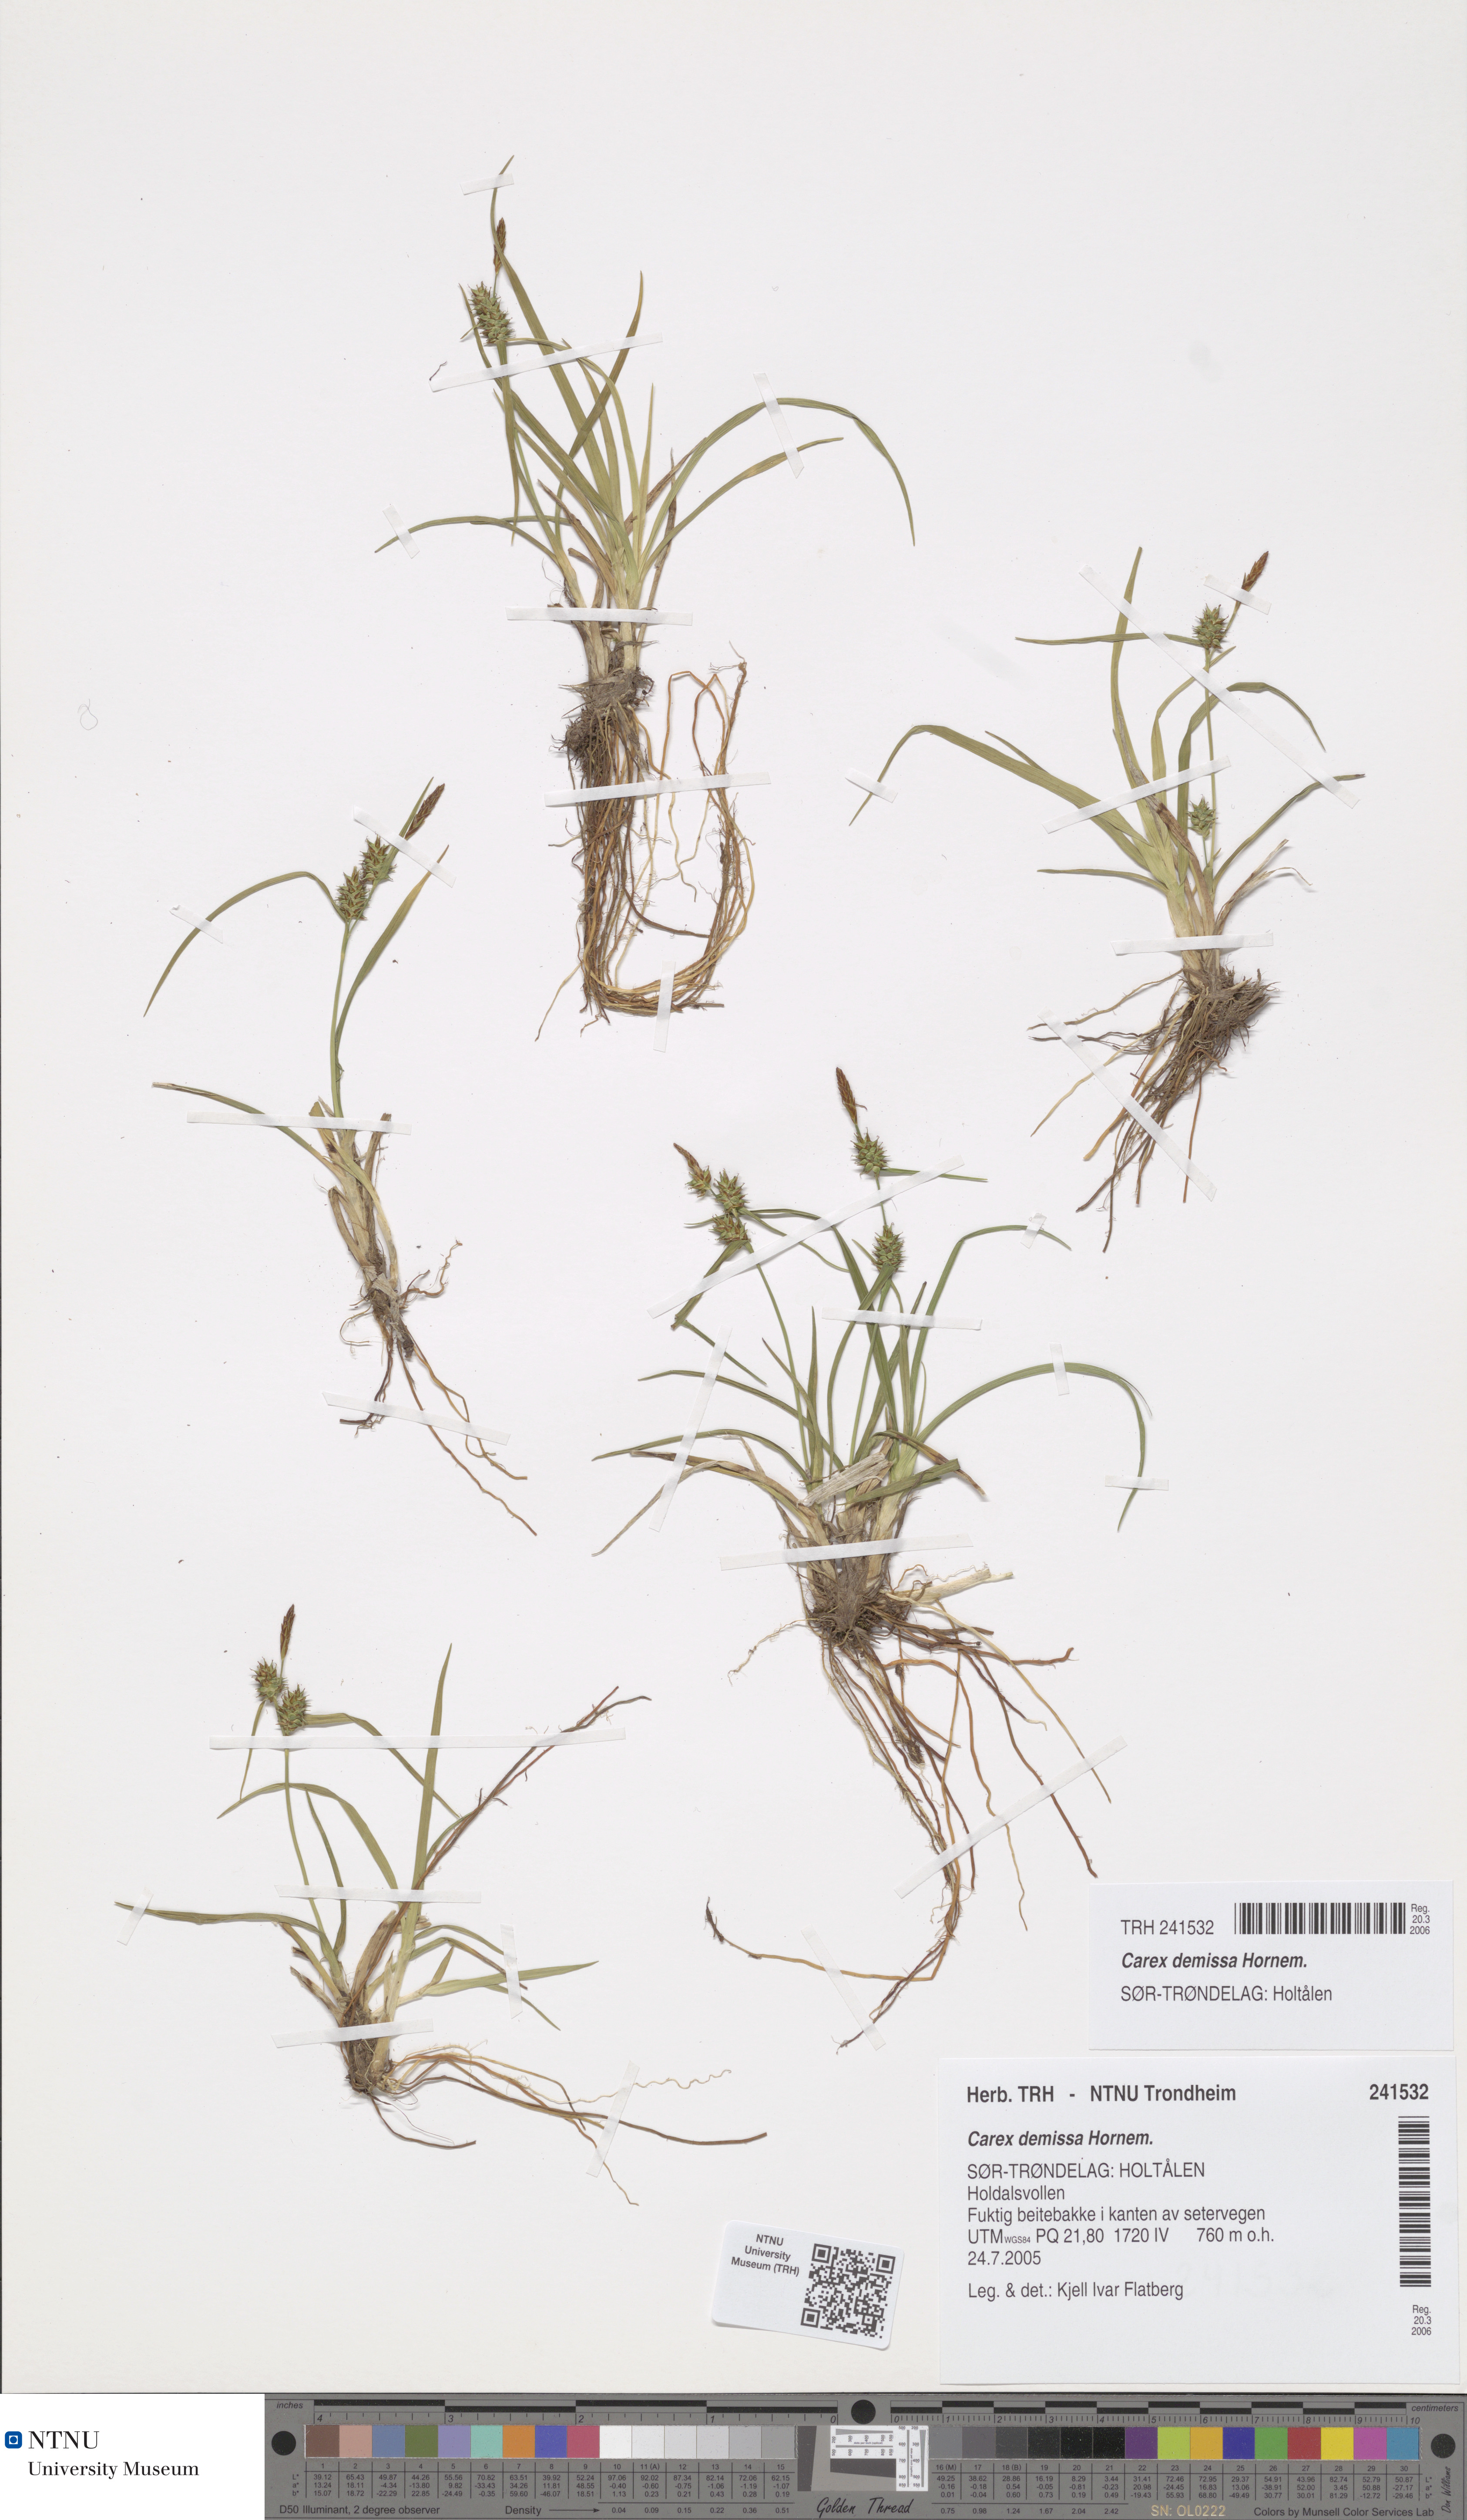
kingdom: Plantae
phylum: Tracheophyta
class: Liliopsida
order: Poales
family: Cyperaceae
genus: Carex
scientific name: Carex demissa
